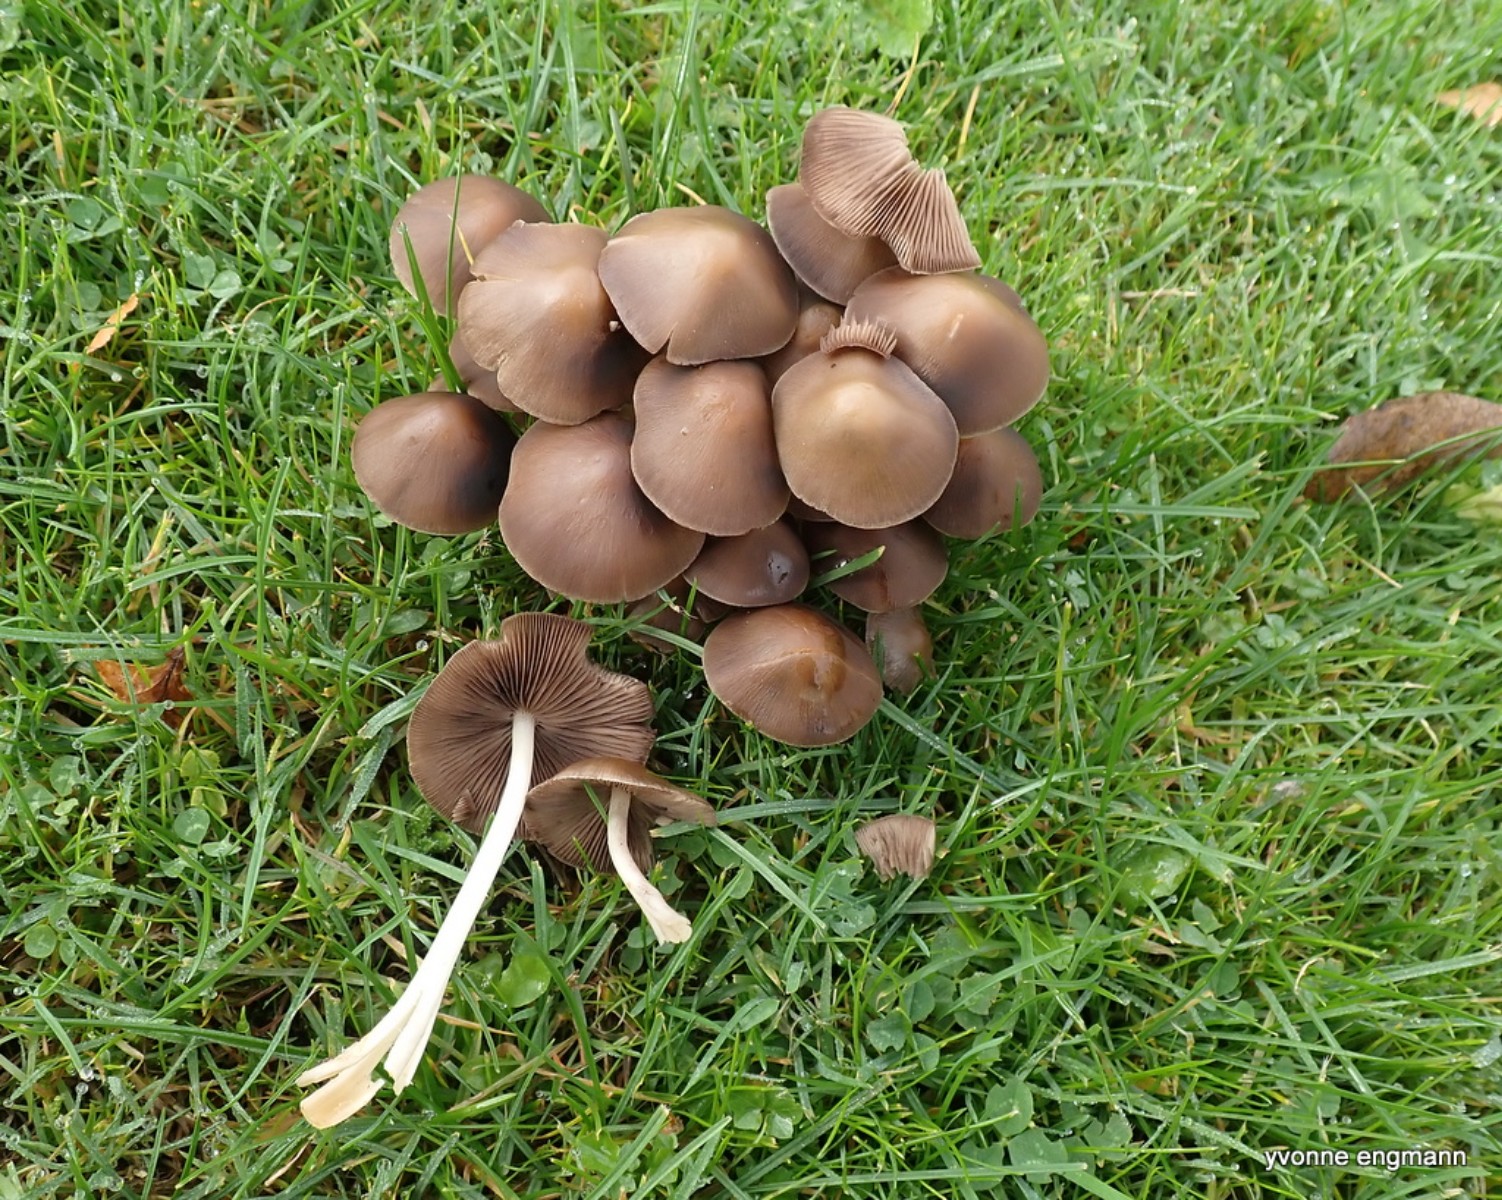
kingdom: Fungi
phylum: Basidiomycota
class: Agaricomycetes
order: Agaricales
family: Psathyrellaceae
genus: Britzelmayria
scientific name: Britzelmayria multipedata
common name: knippe-mørkhat
